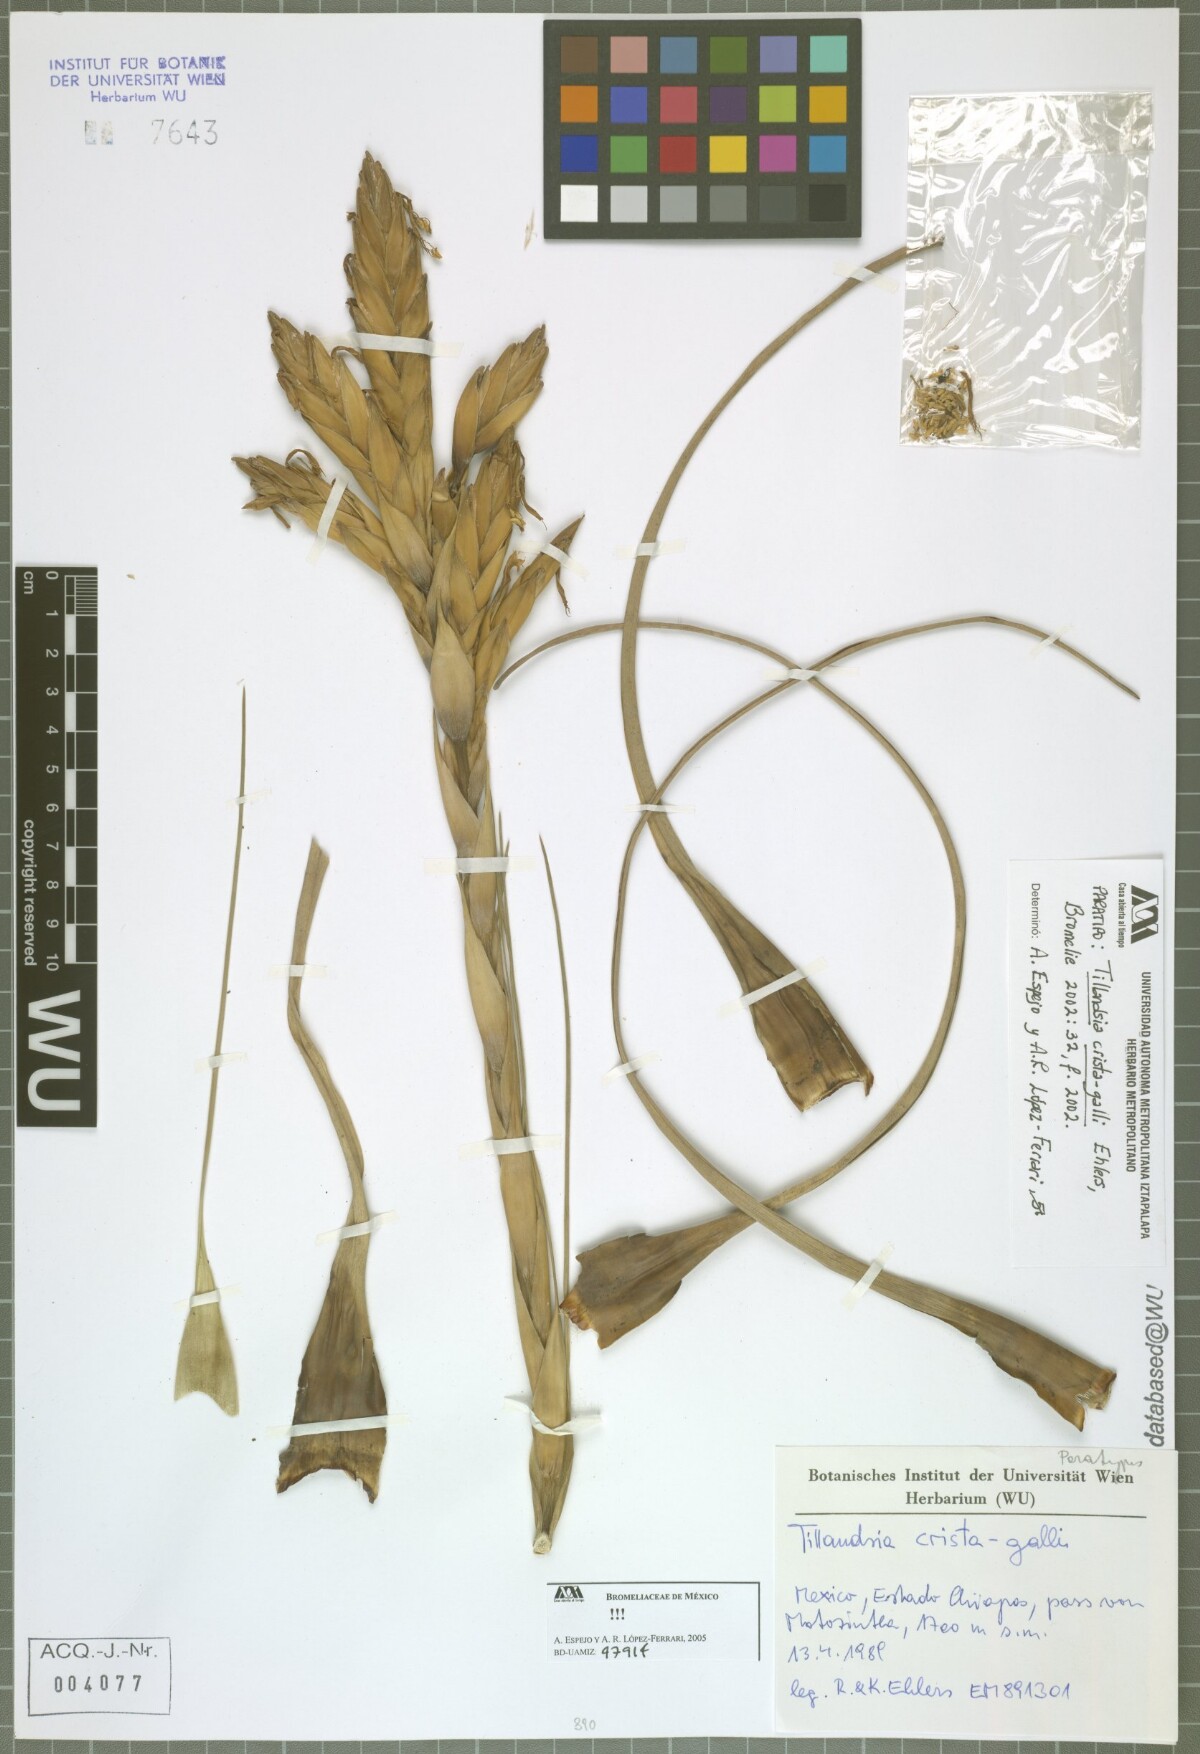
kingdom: Plantae
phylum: Tracheophyta
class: Liliopsida
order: Poales
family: Bromeliaceae
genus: Tillandsia
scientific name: Tillandsia crista-galli
